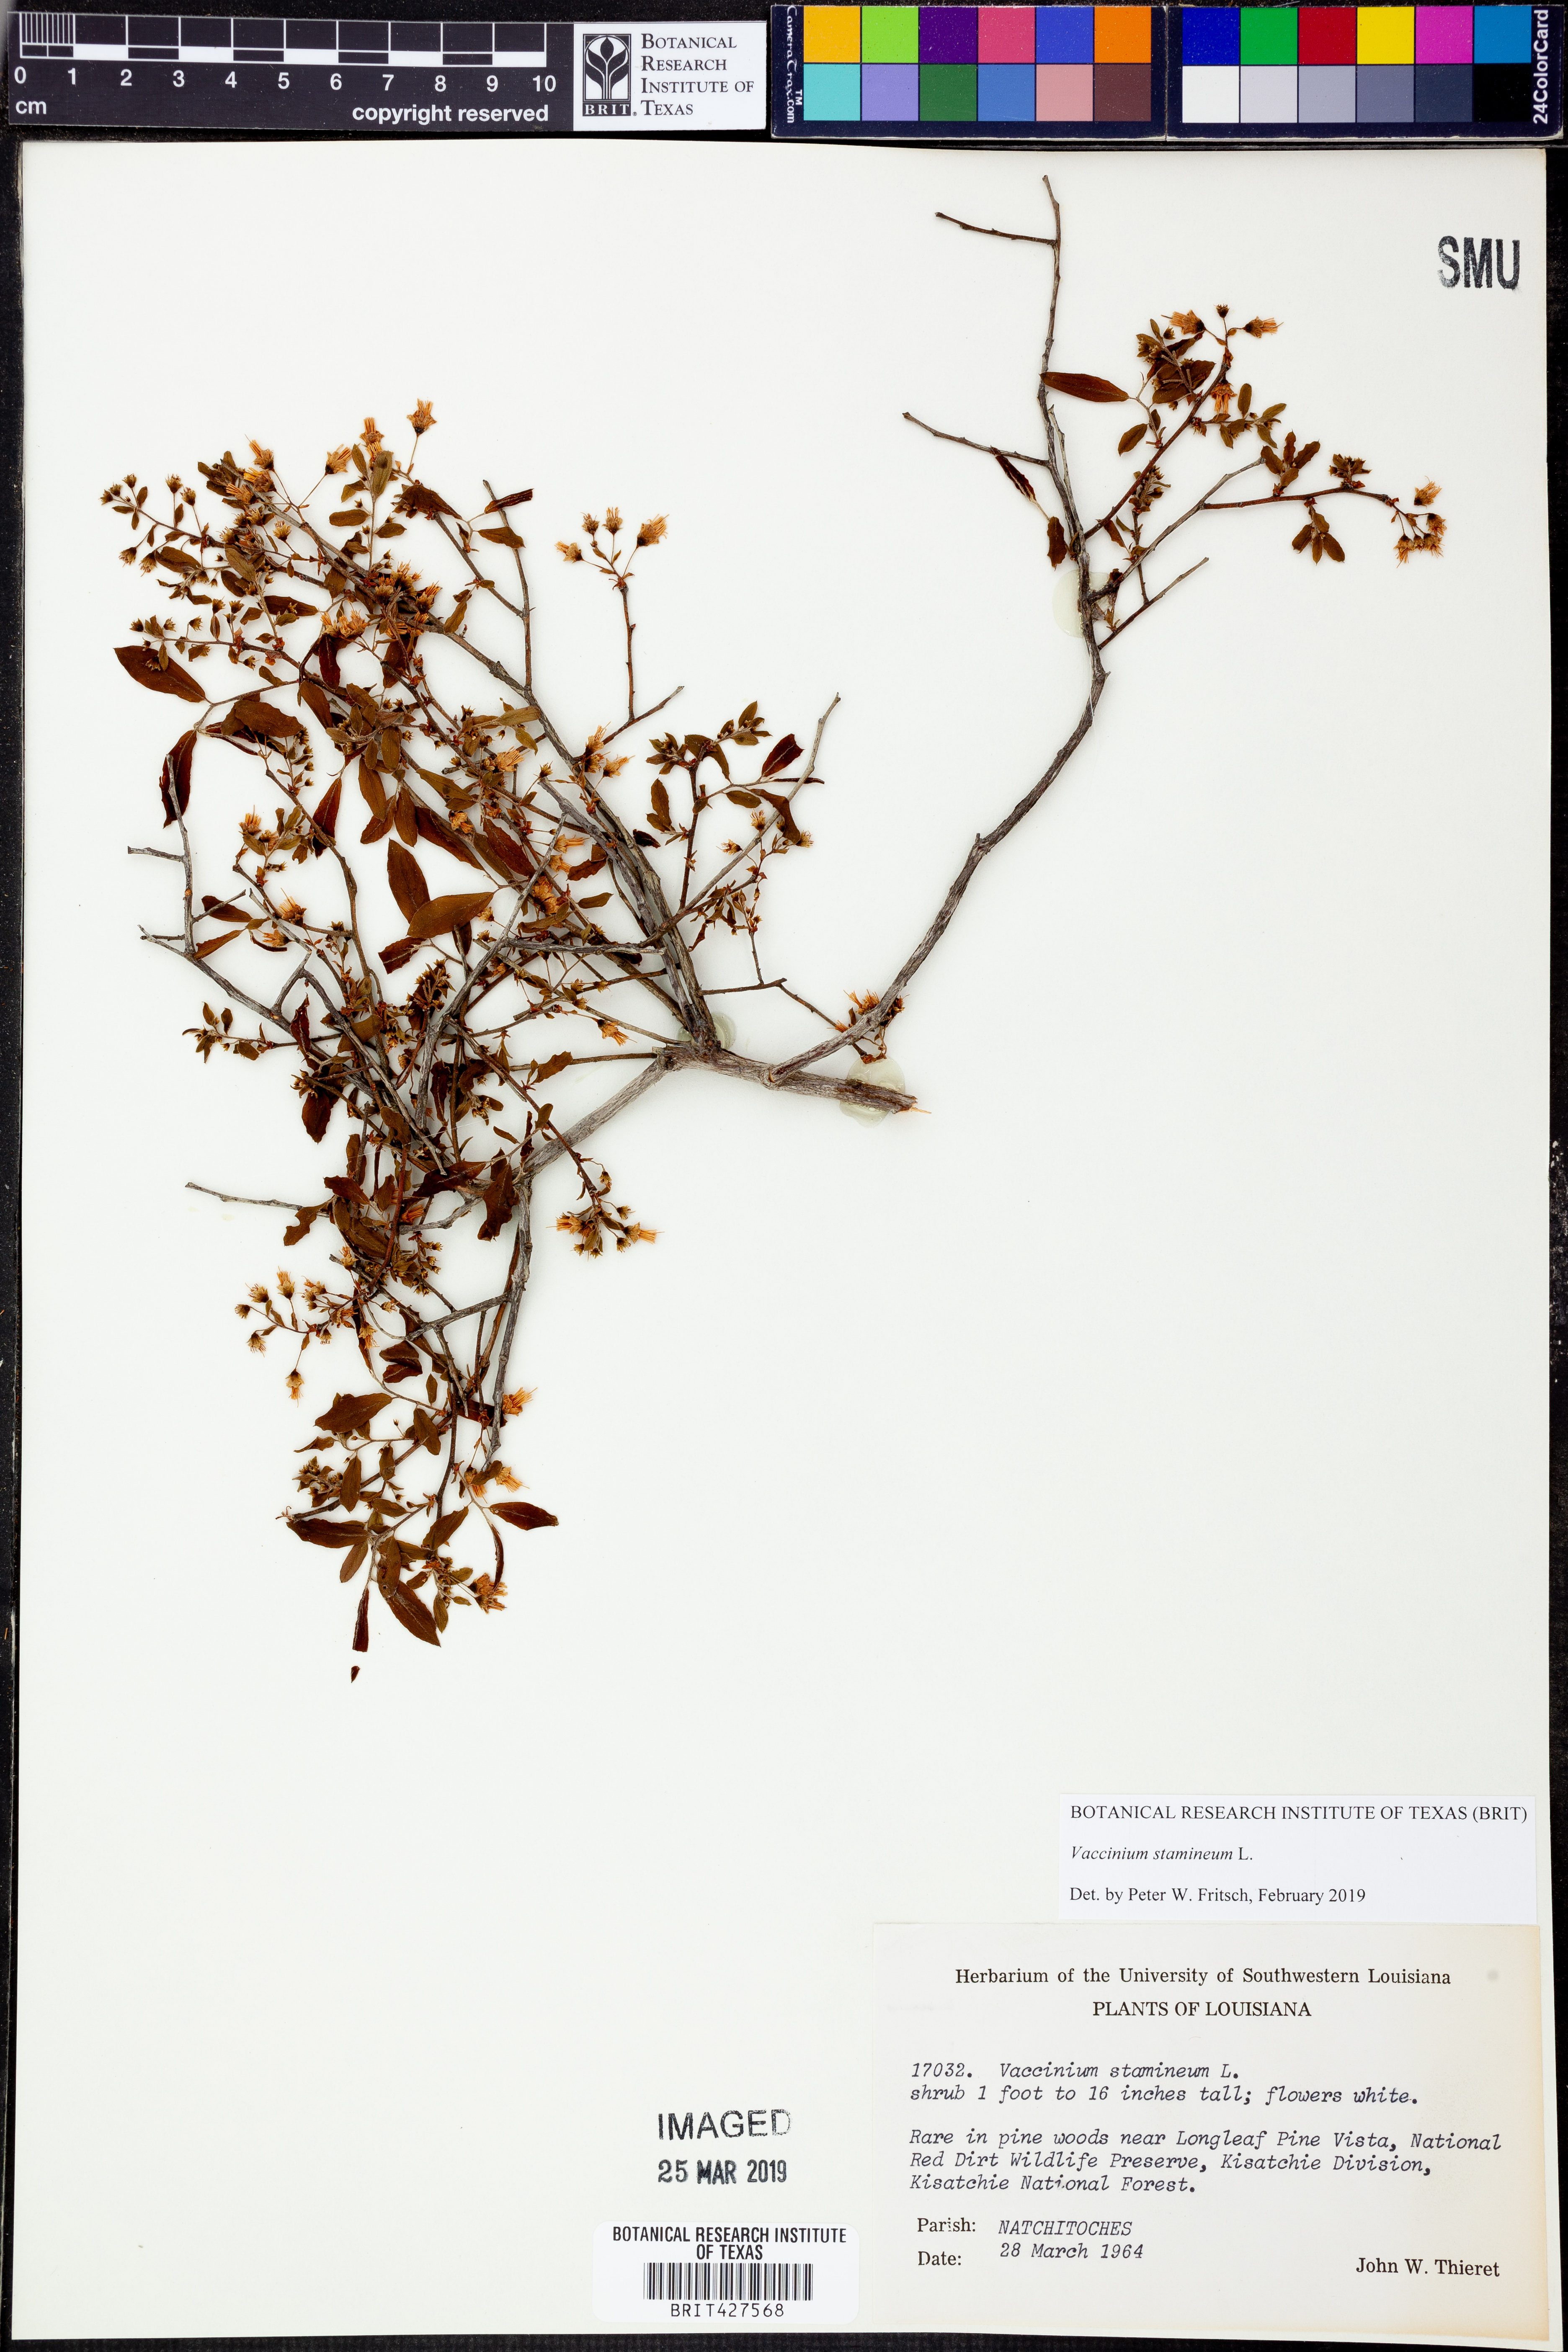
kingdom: Plantae
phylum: Tracheophyta
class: Magnoliopsida
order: Ericales
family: Ericaceae
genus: Vaccinium
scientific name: Vaccinium stamineum
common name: Deerberry
